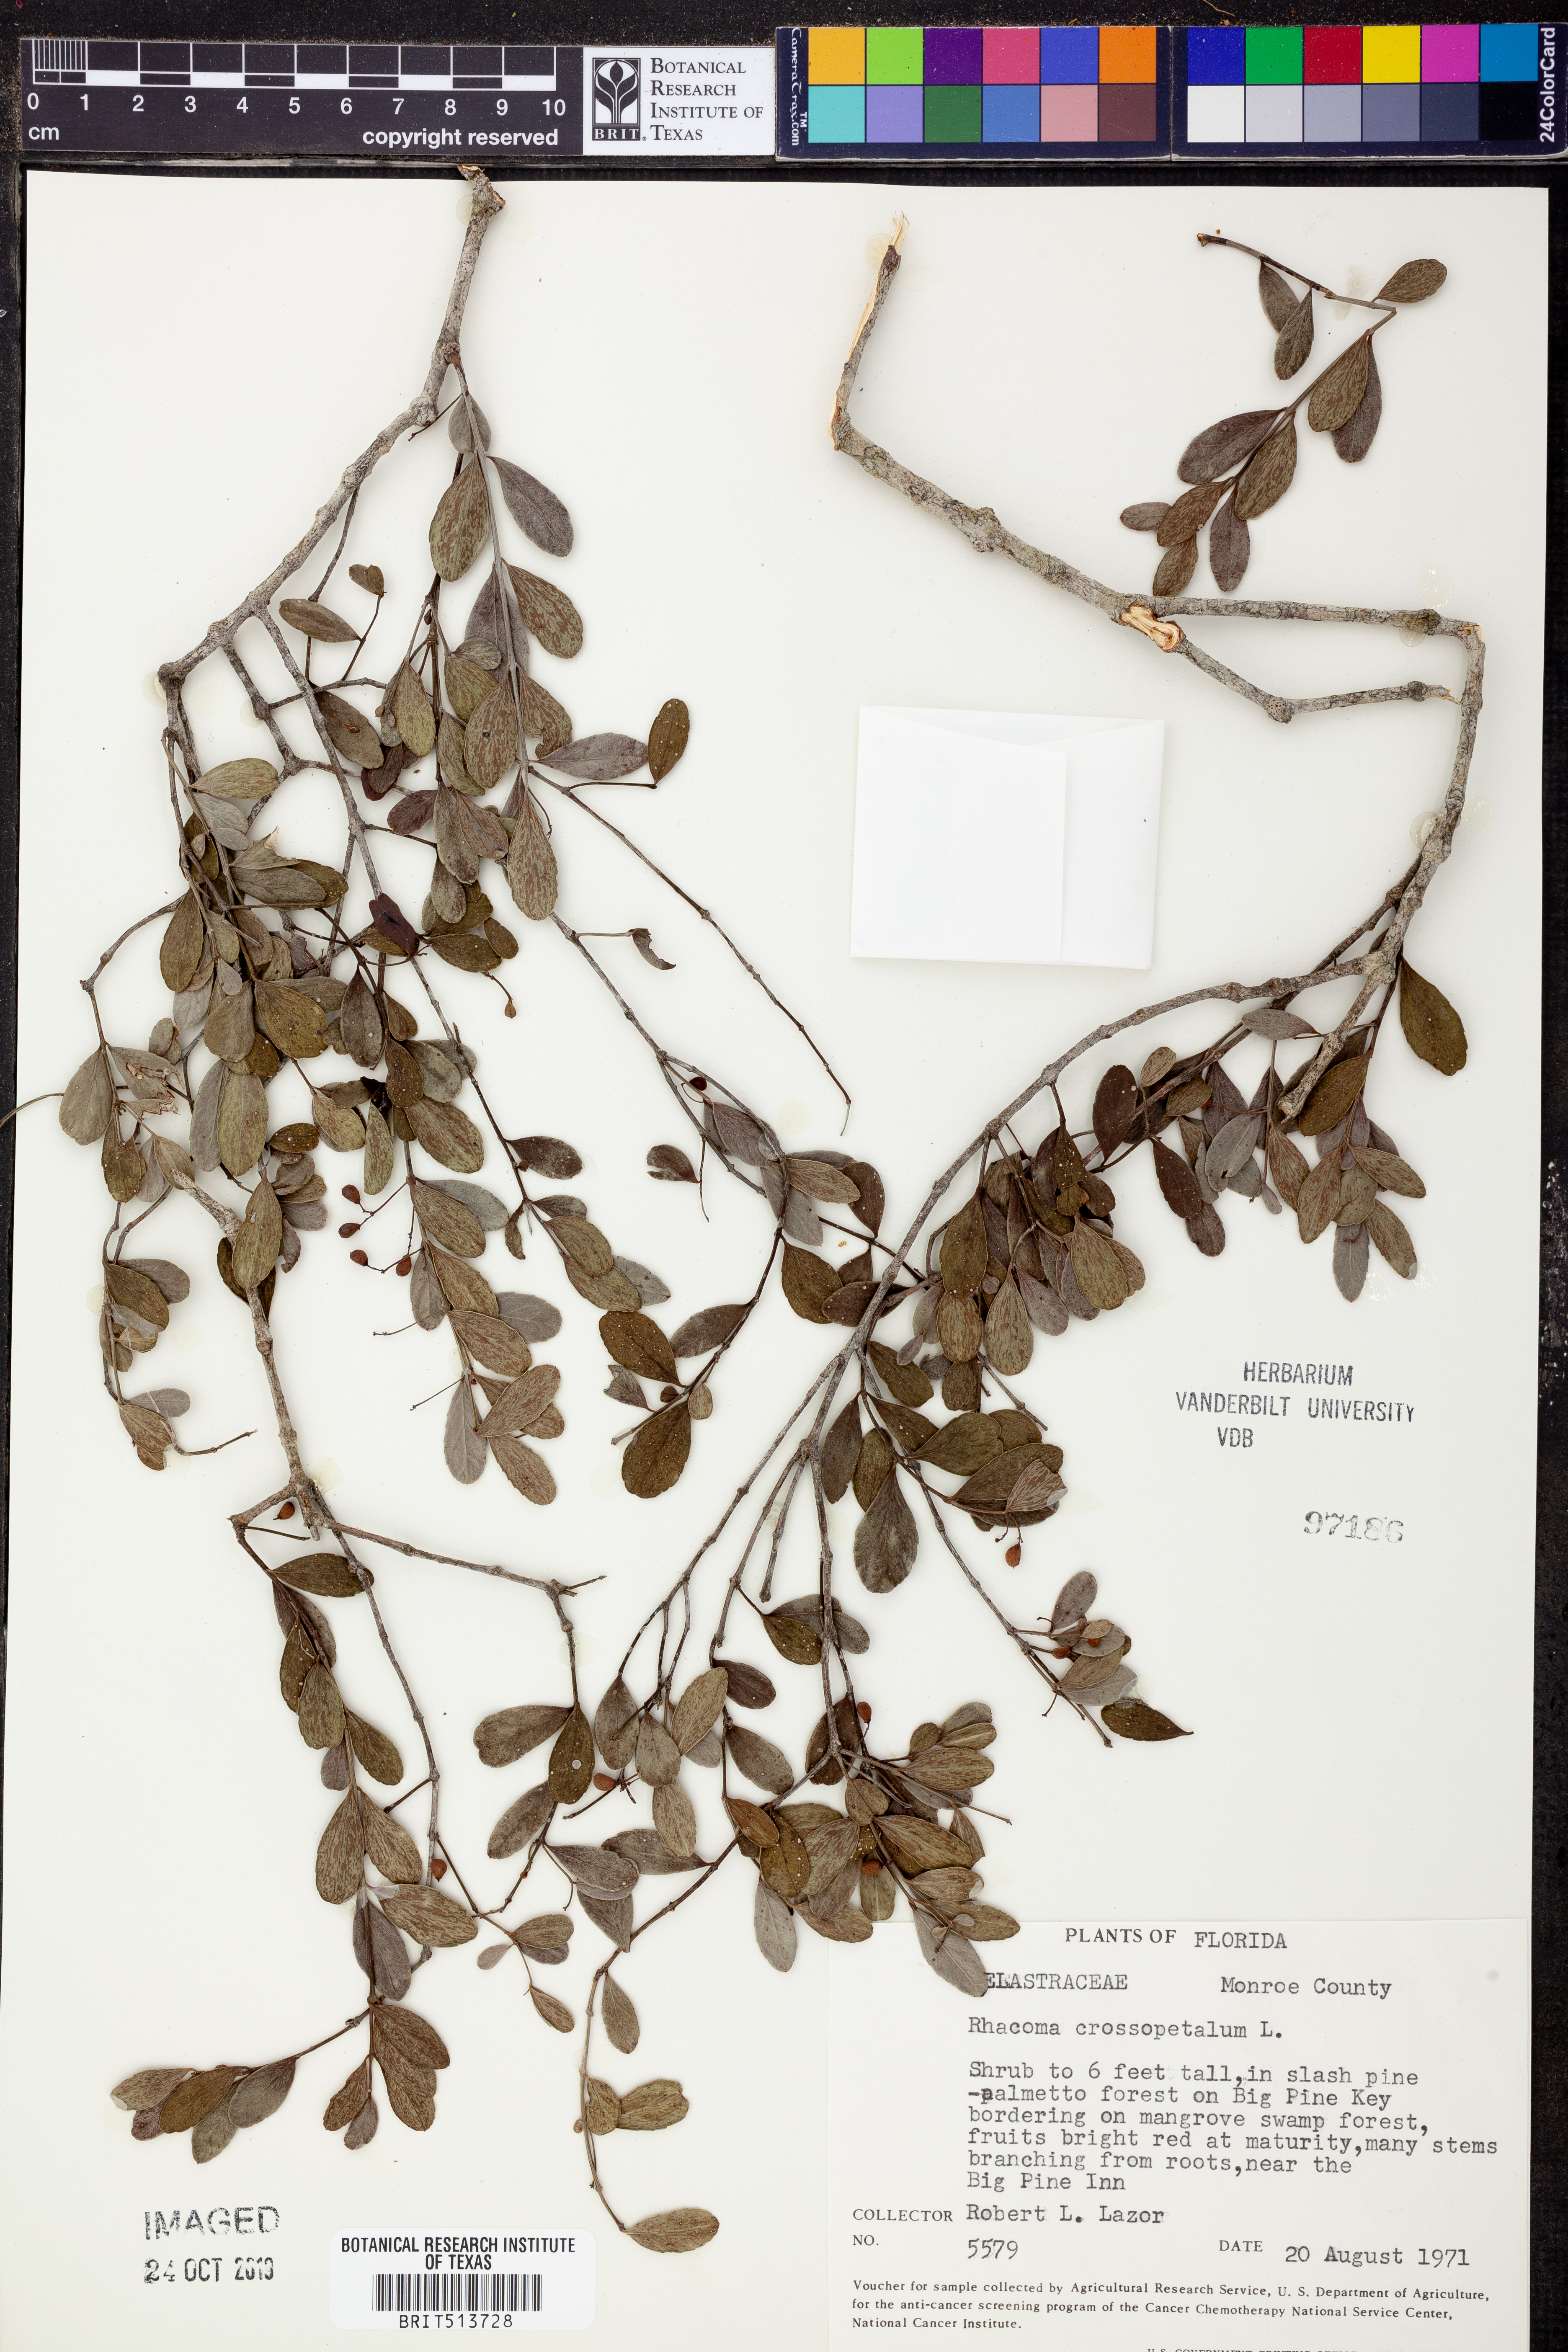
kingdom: Plantae
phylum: Tracheophyta
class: Magnoliopsida
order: Celastrales
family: Celastraceae
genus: Crossopetalum
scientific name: Crossopetalum rhacoma
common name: Maidenberry
